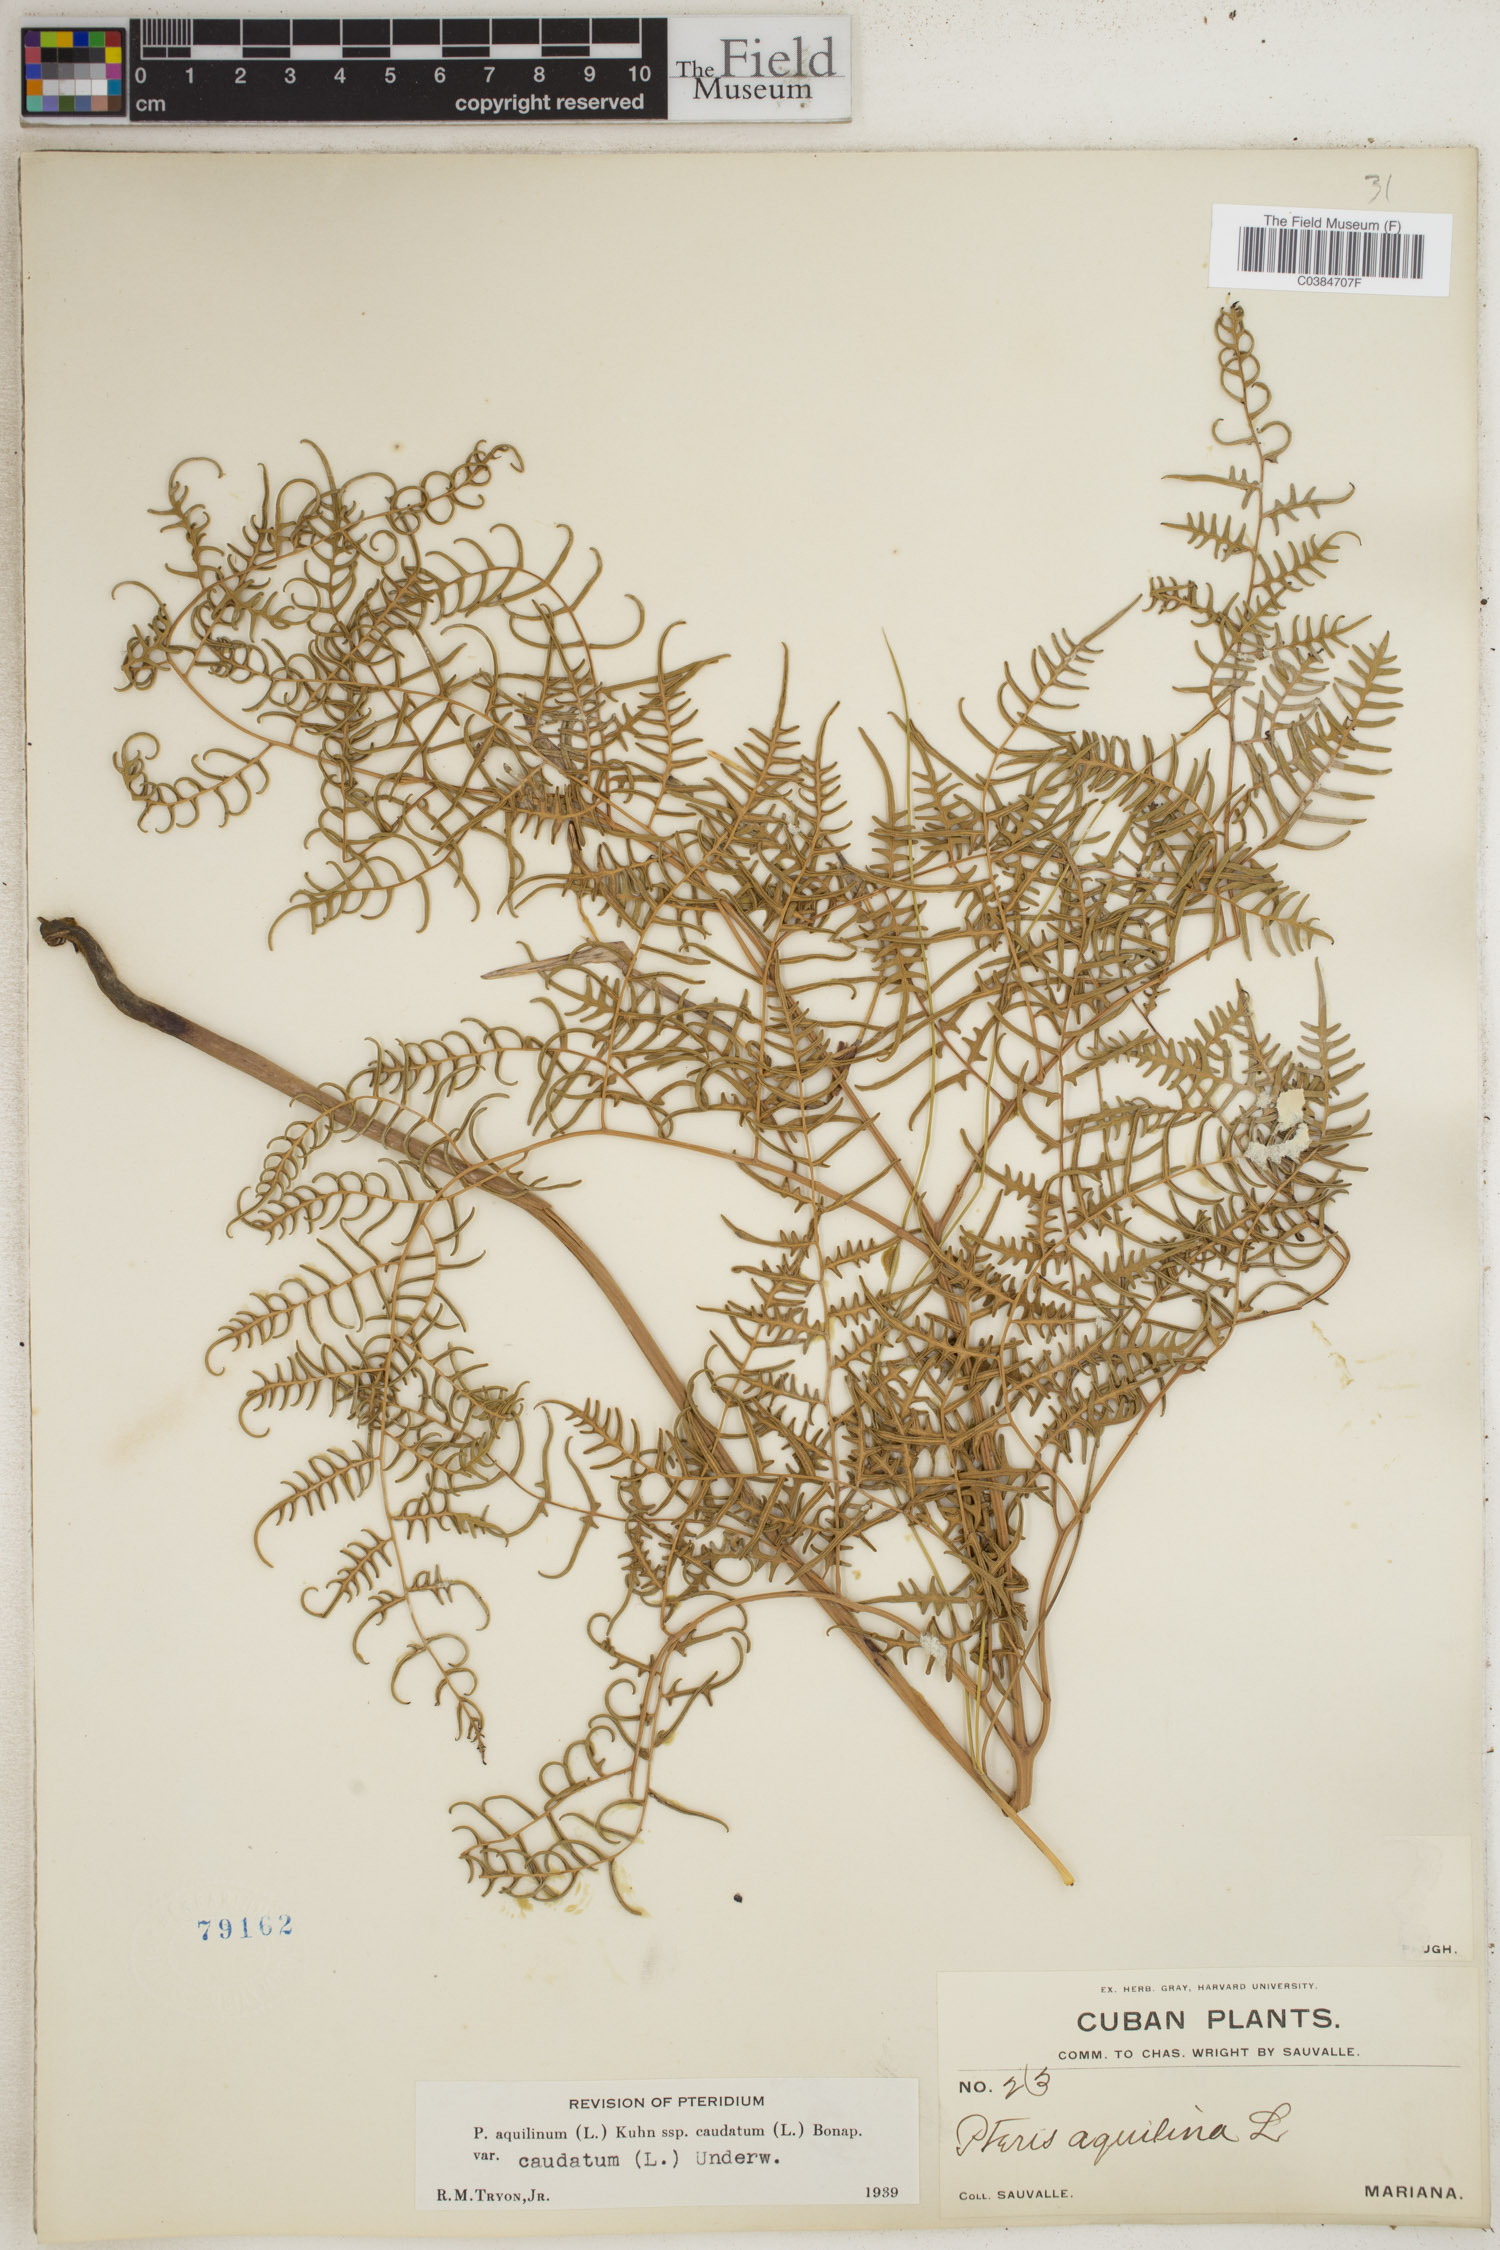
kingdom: Plantae
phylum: Tracheophyta
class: Polypodiopsida
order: Polypodiales
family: Dennstaedtiaceae
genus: Pteridium
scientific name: Pteridium caudatum
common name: Southern bracken fern
